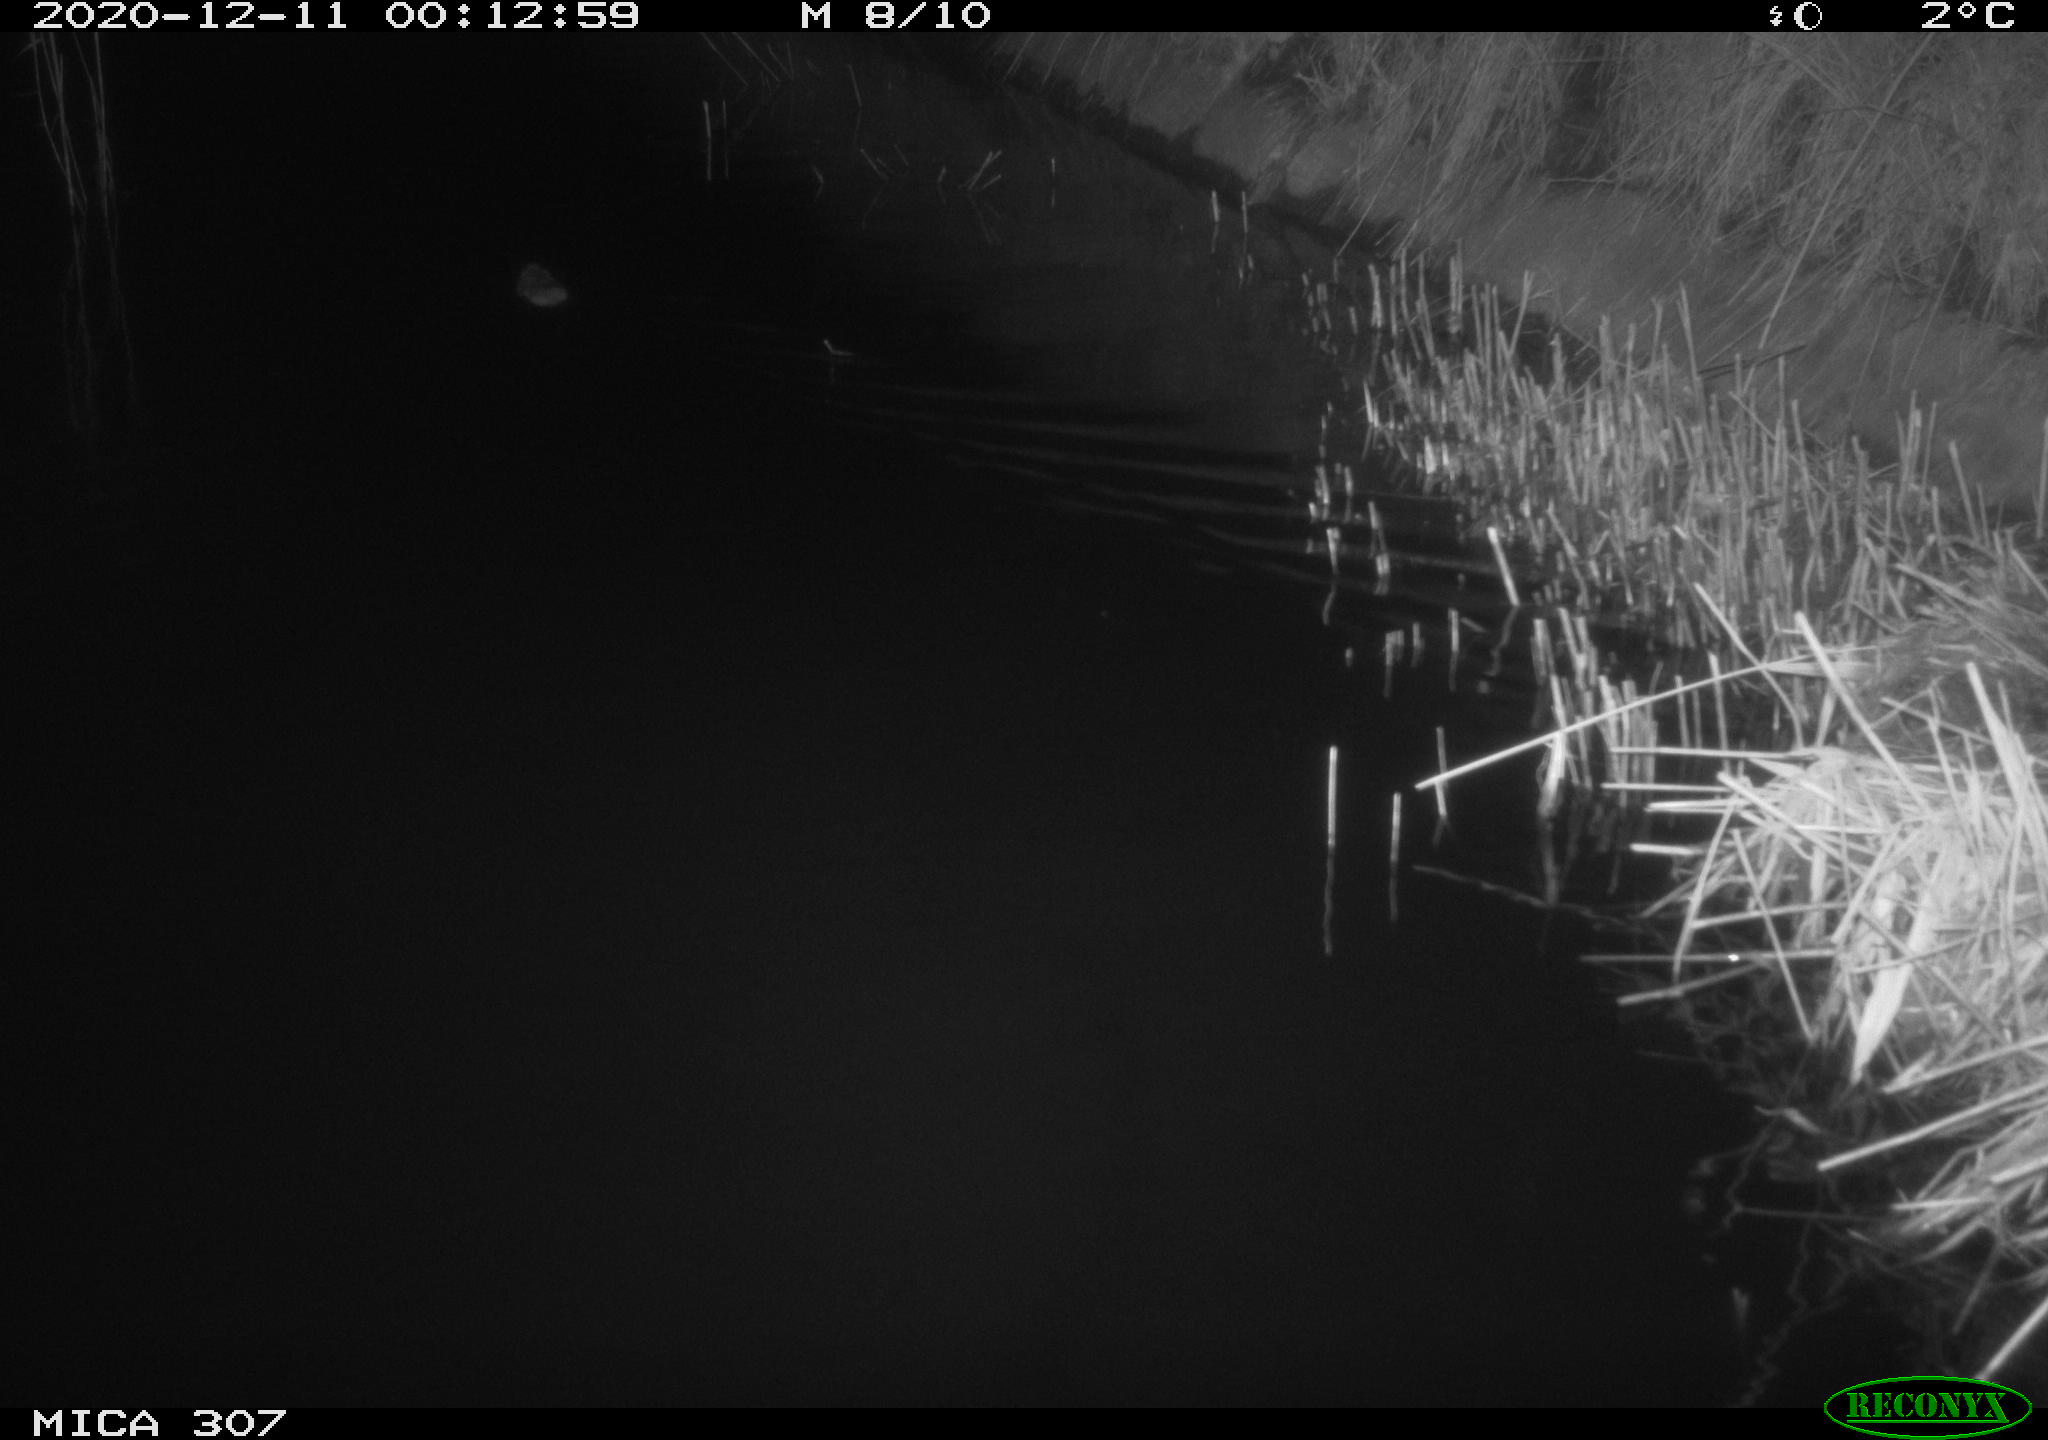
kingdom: Animalia
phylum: Chordata
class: Mammalia
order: Rodentia
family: Muridae
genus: Rattus
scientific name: Rattus norvegicus
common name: Brown rat
